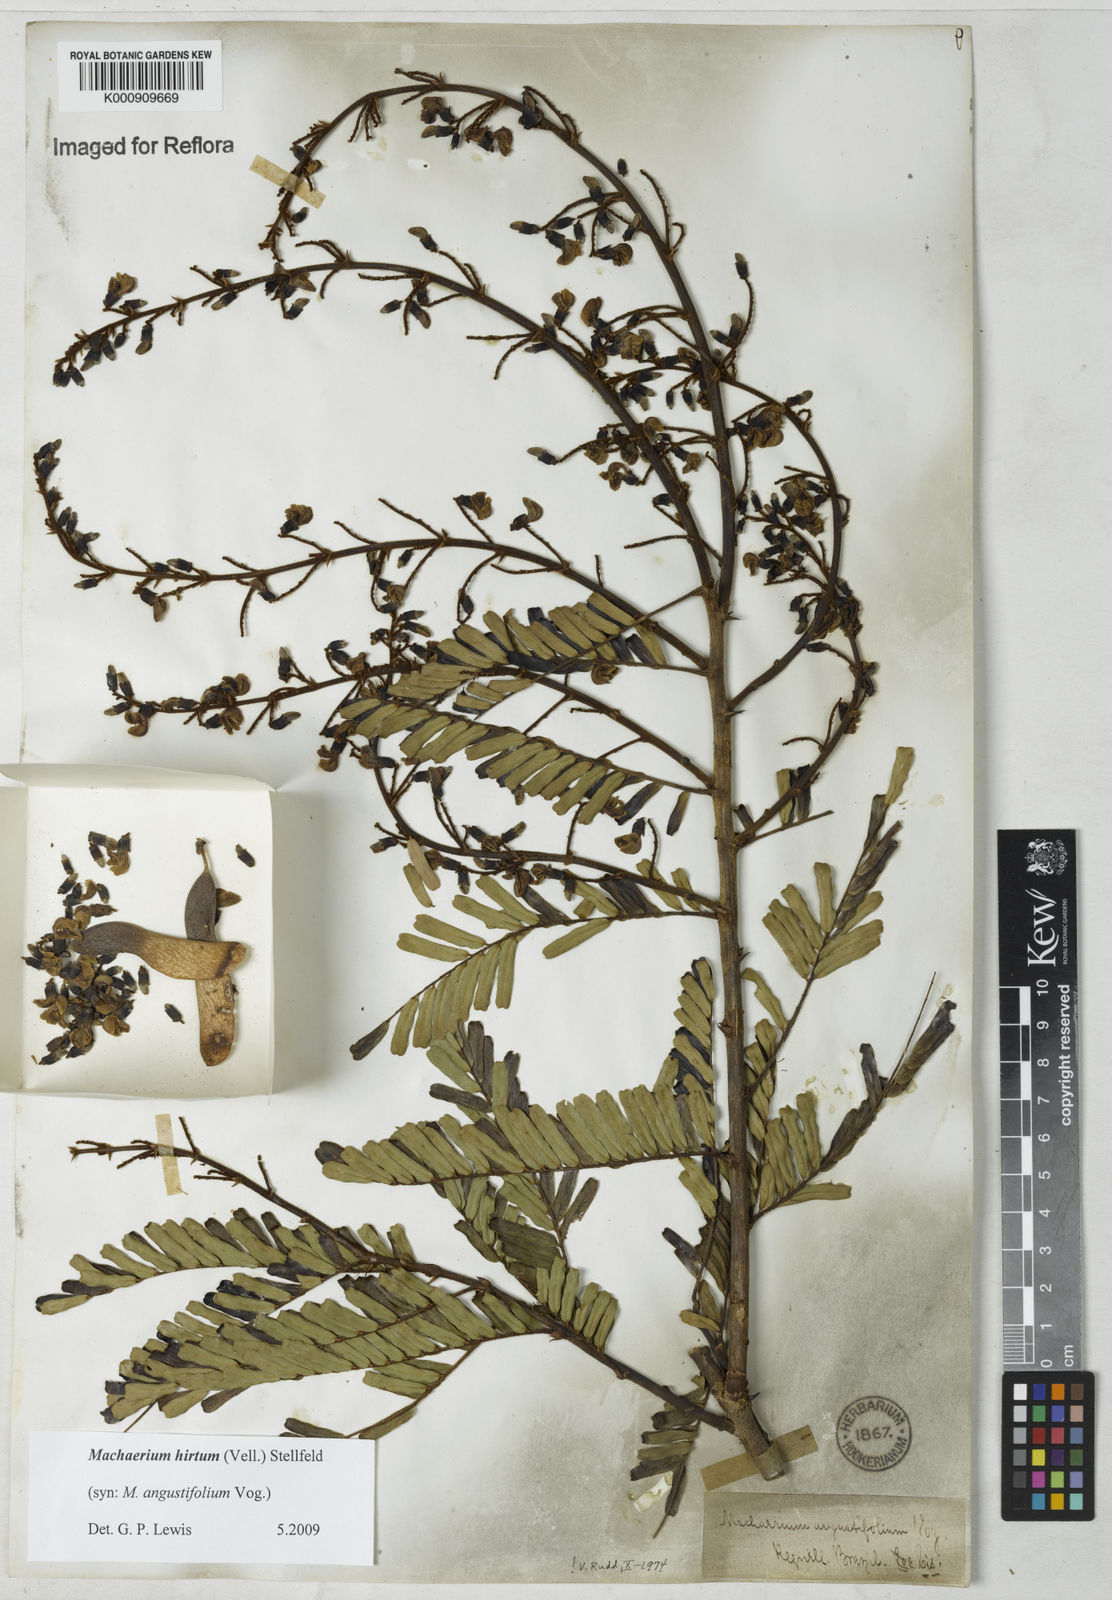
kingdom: Plantae
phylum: Tracheophyta
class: Magnoliopsida
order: Fabales
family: Fabaceae
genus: Machaerium
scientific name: Machaerium hirtum
